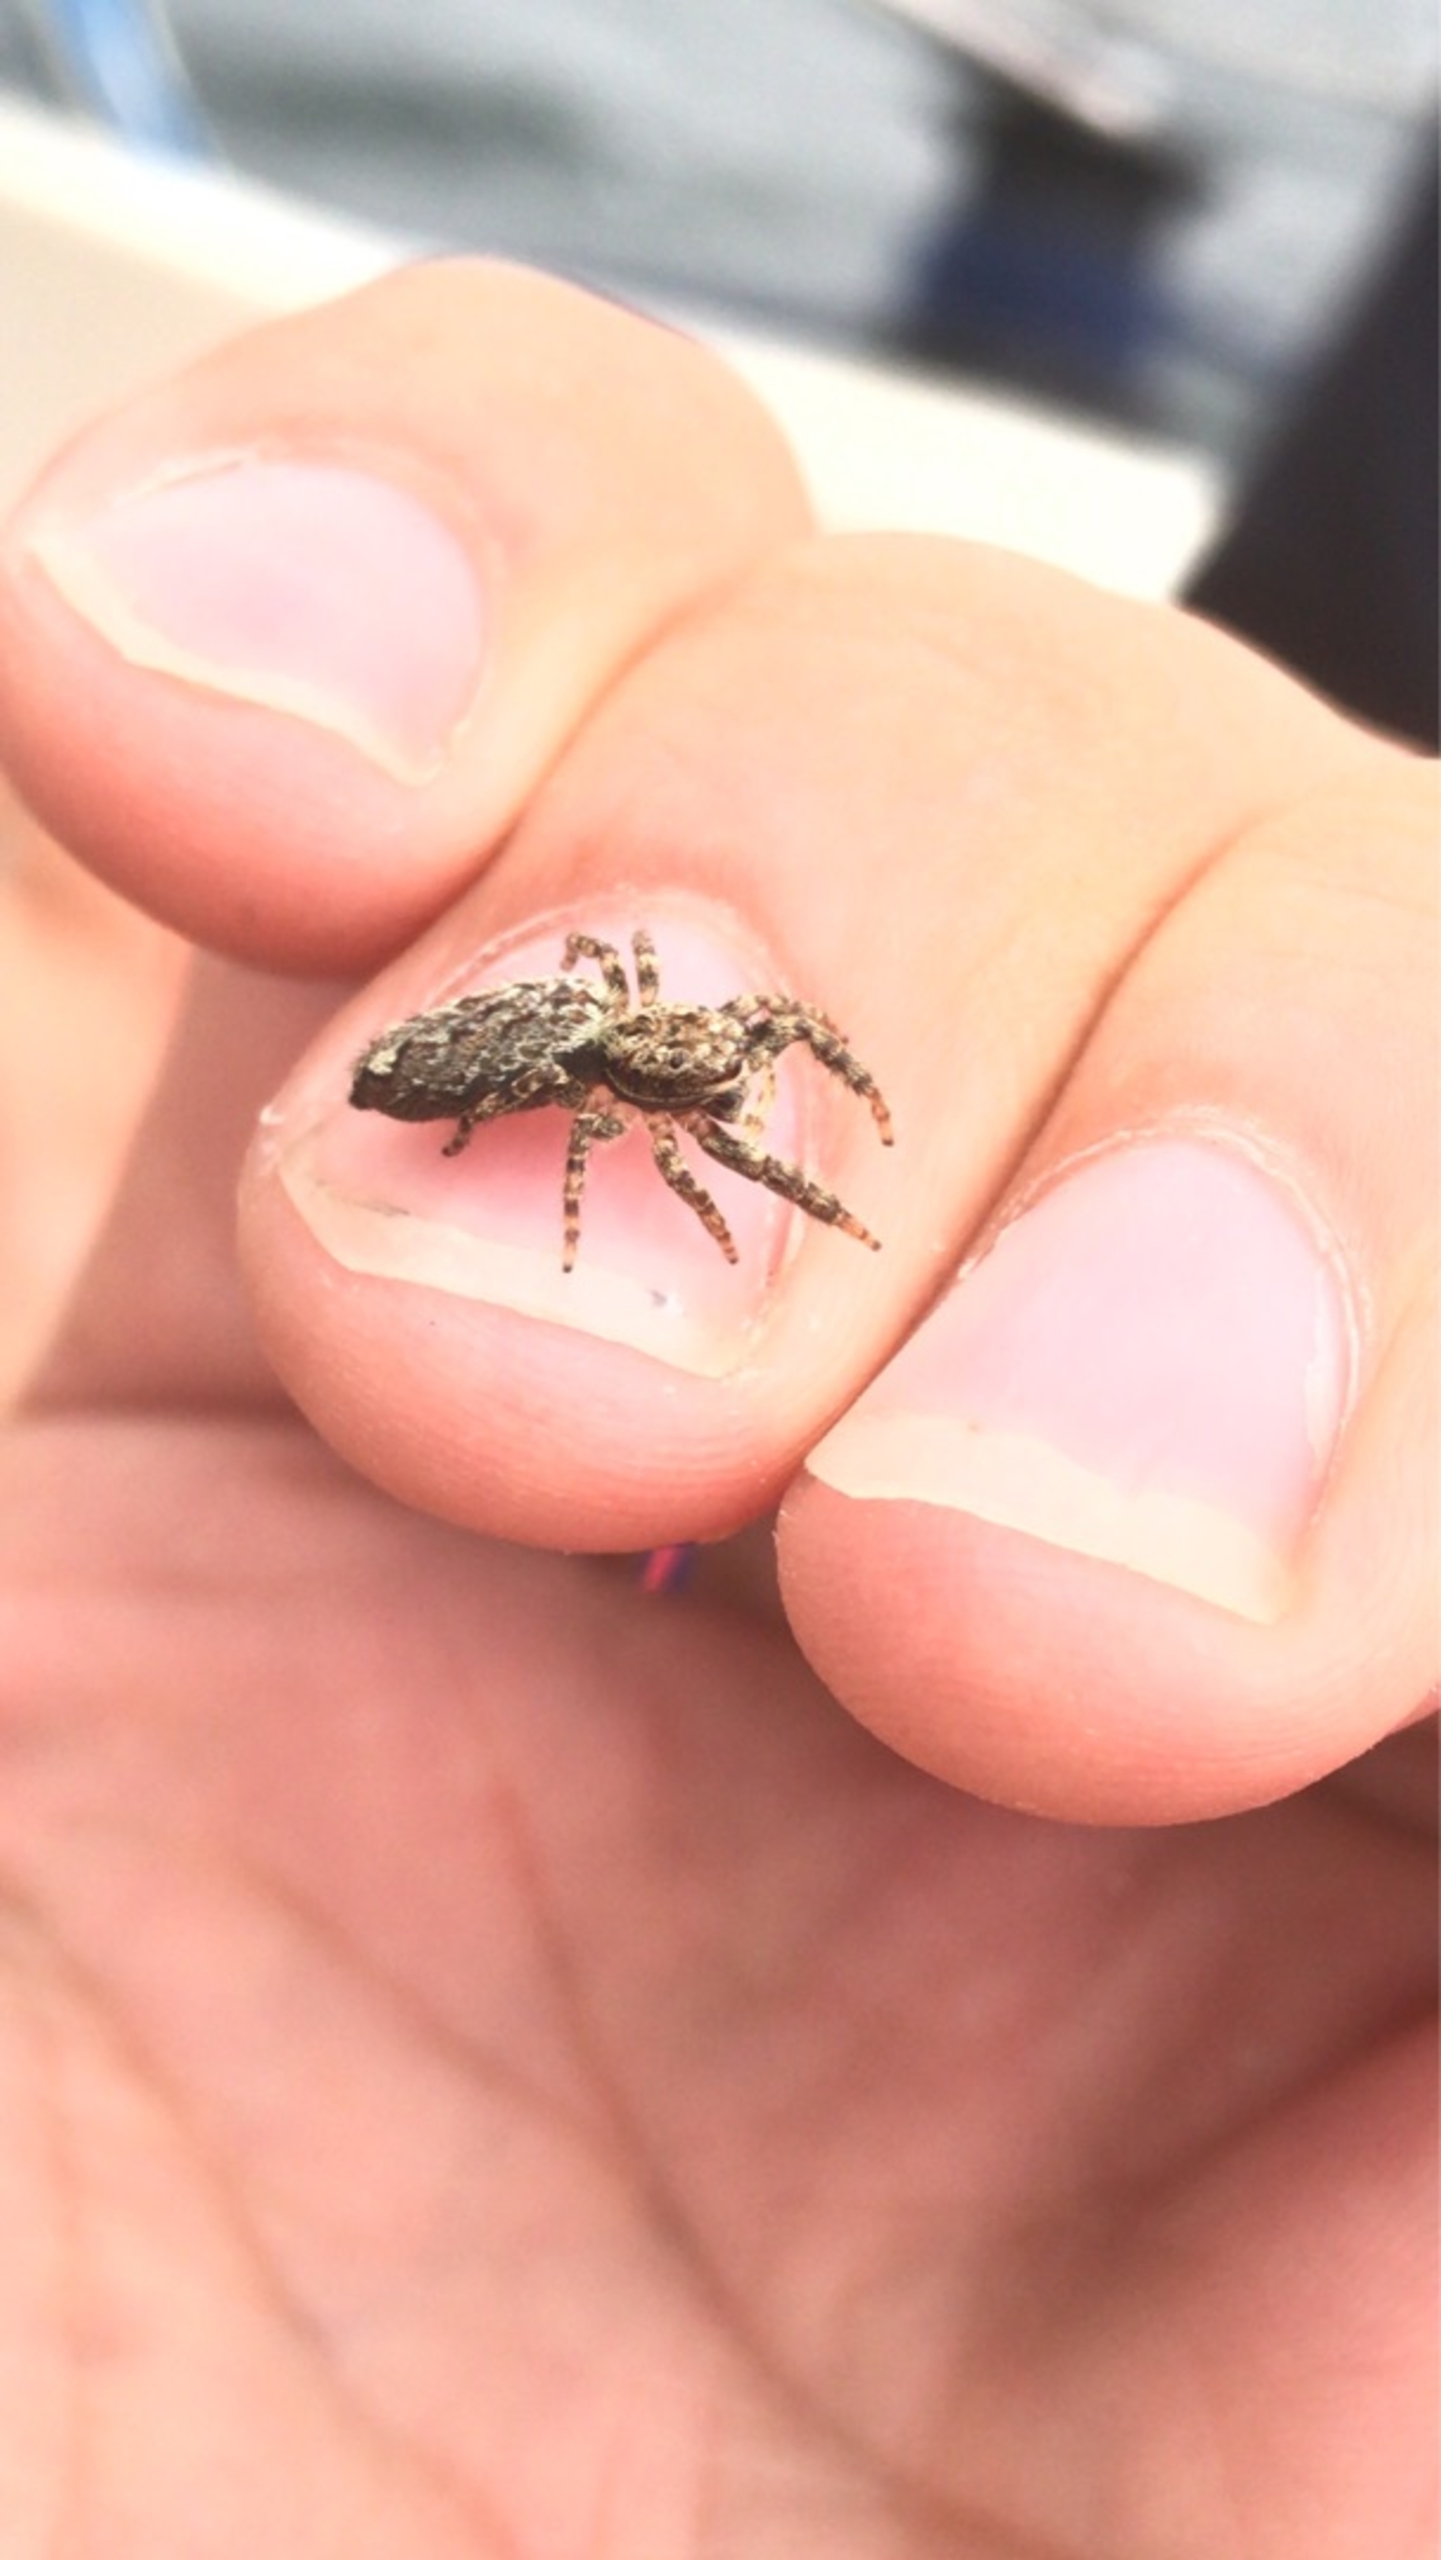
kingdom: Animalia
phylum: Arthropoda
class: Arachnida
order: Araneae
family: Salticidae
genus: Marpissa
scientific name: Marpissa muscosa
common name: Stor springedderkop
